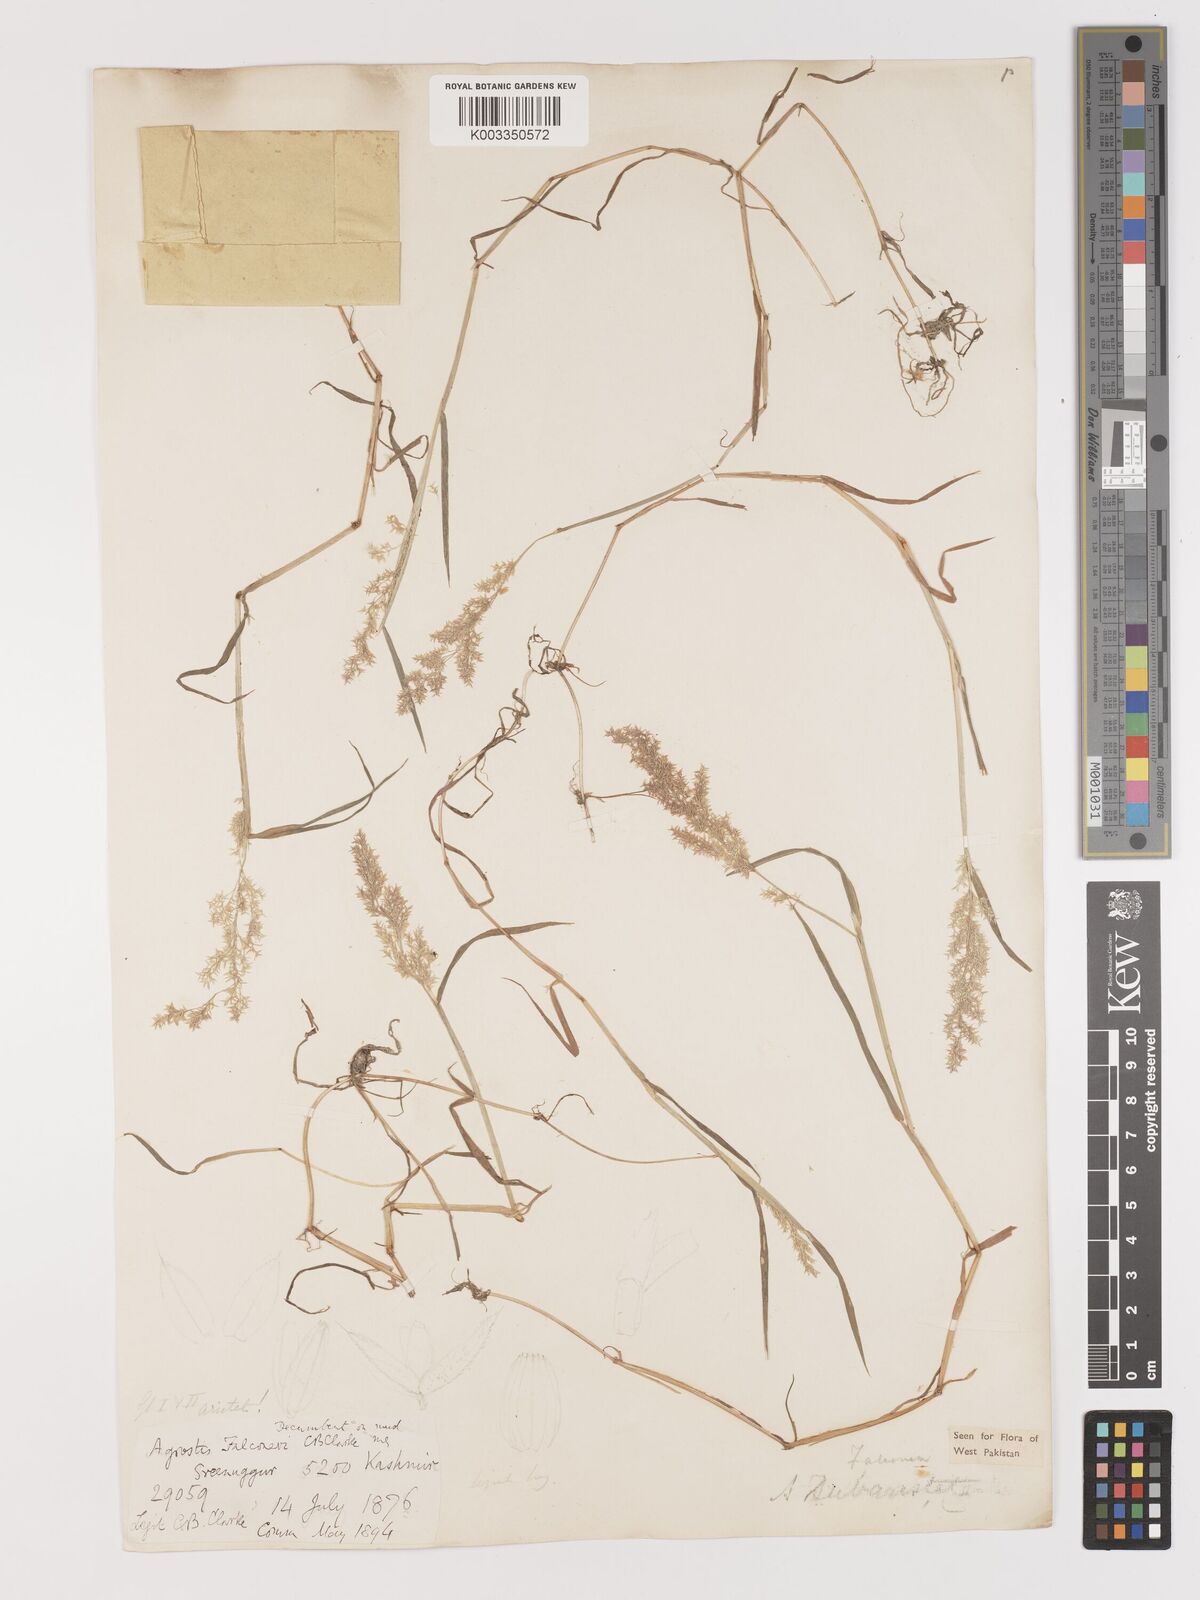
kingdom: Plantae
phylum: Tracheophyta
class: Liliopsida
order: Poales
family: Poaceae
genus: Agropogon
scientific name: Agropogon lutosus
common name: Coast agropogon
